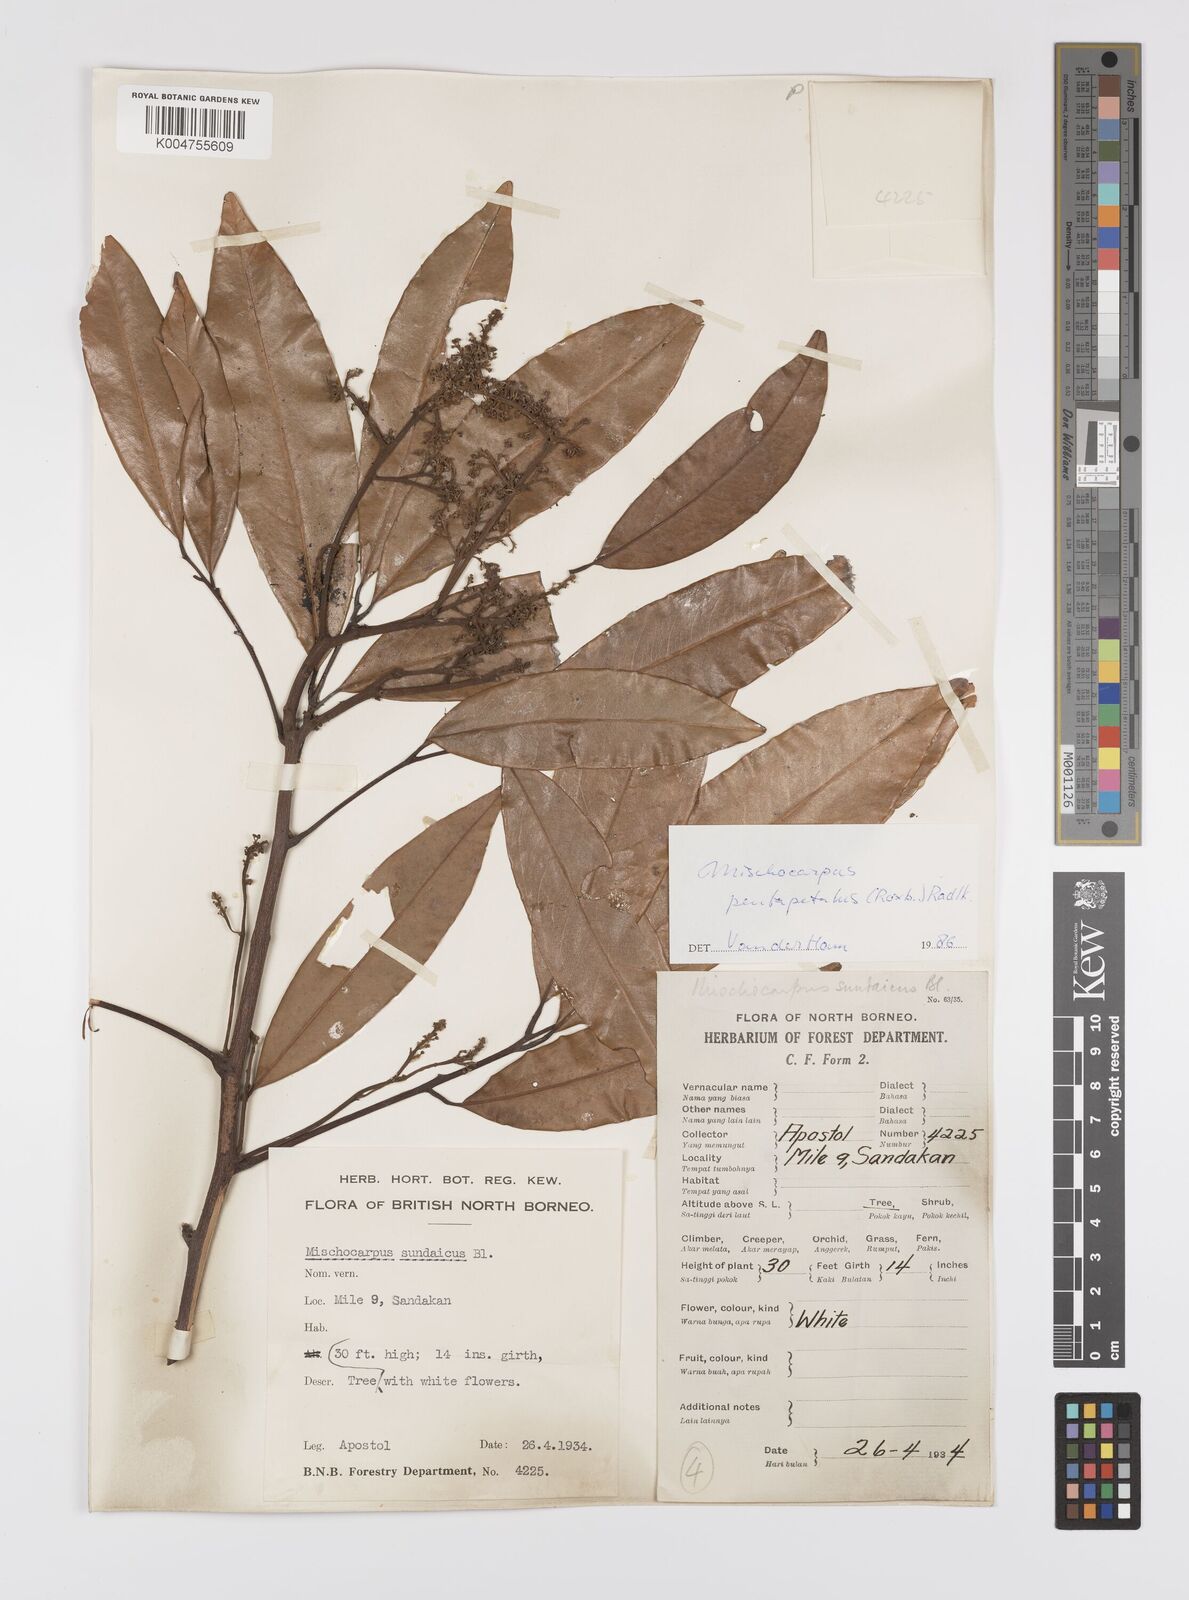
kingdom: Plantae
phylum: Tracheophyta
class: Magnoliopsida
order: Sapindales
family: Sapindaceae
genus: Mischocarpus
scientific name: Mischocarpus pentapetalus
